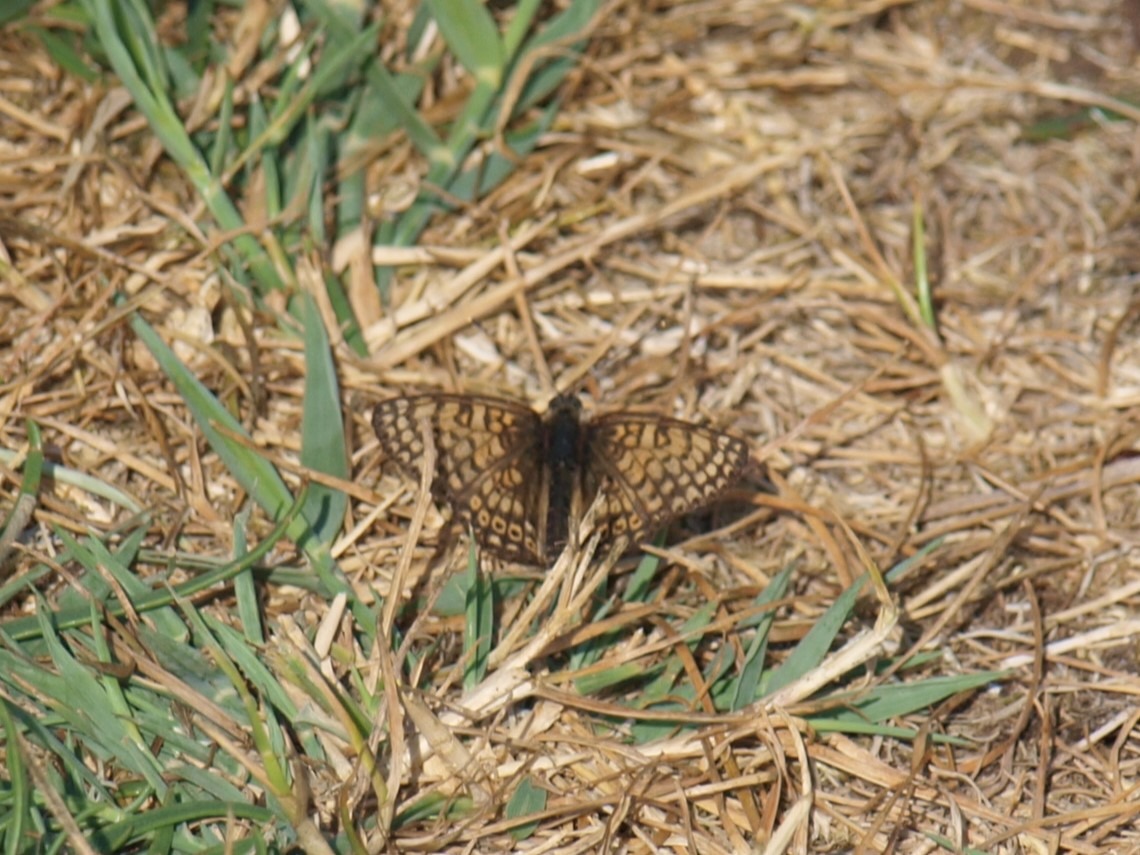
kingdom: Animalia
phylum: Arthropoda
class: Insecta
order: Lepidoptera
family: Nymphalidae
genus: Melitaea
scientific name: Melitaea cinxia
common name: Okkergul pletvinge
